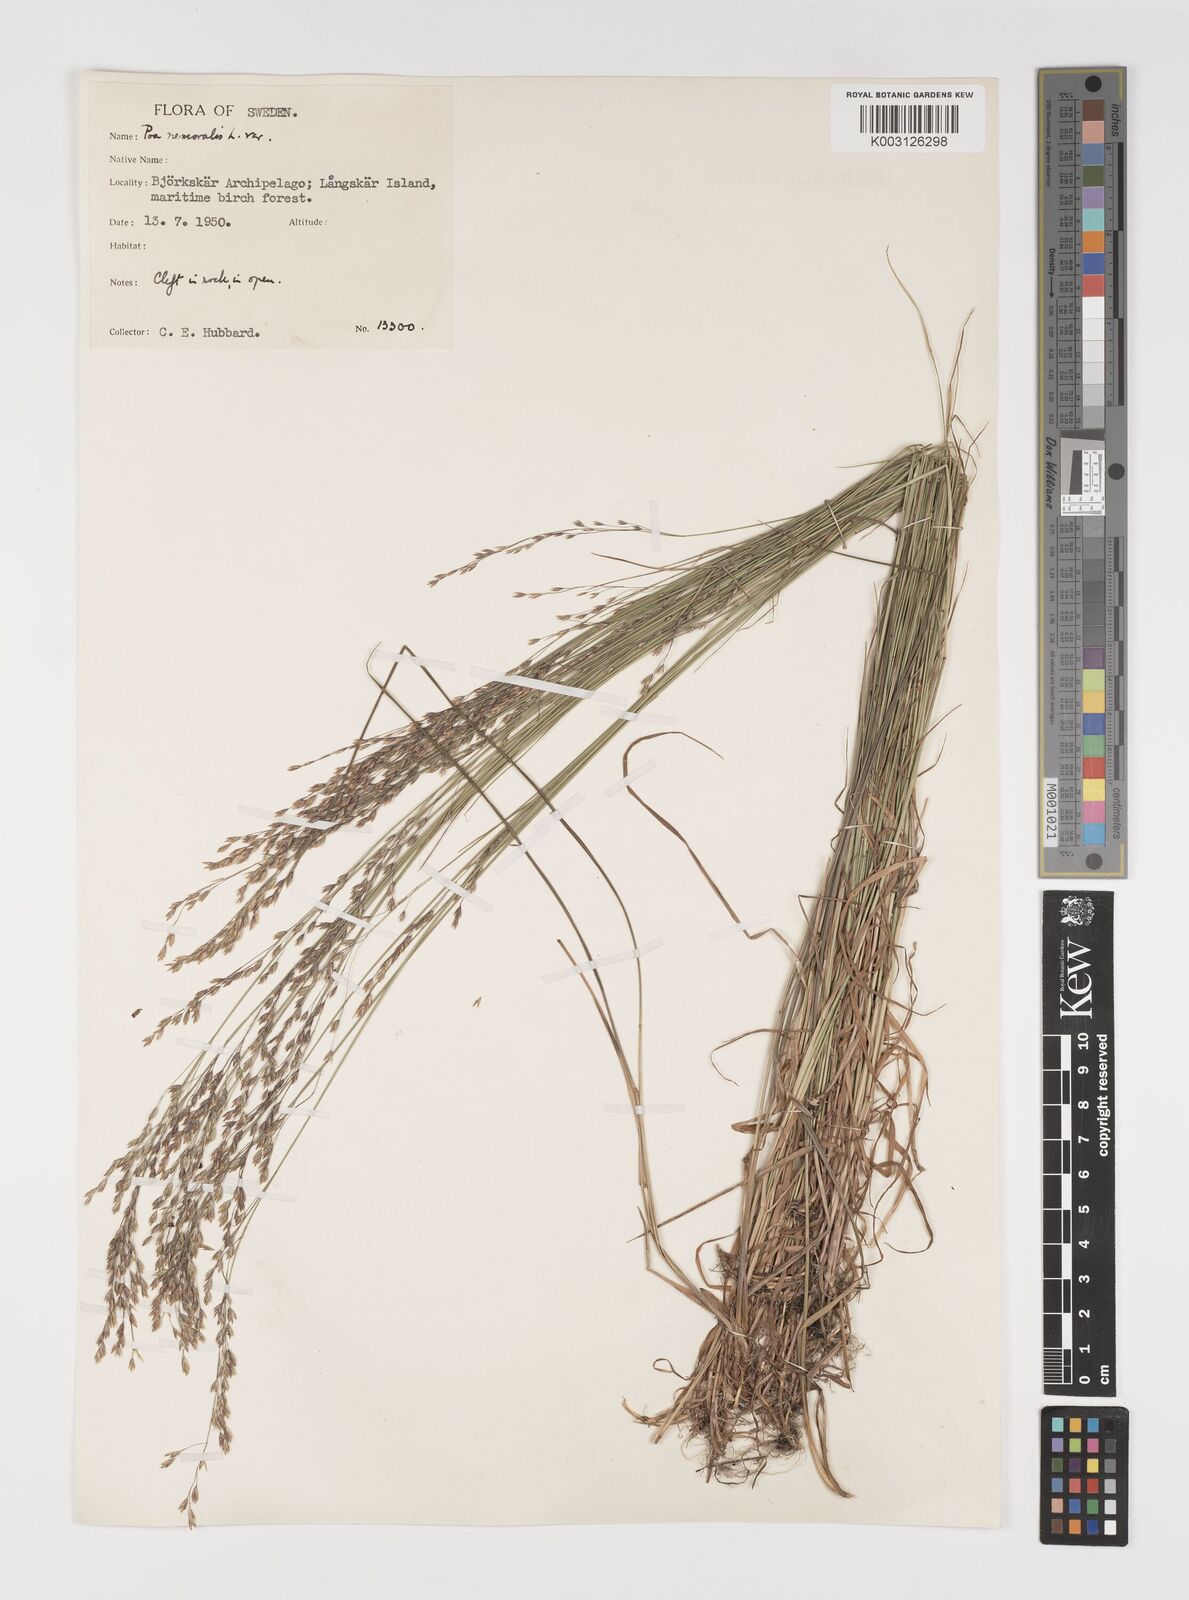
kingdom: Plantae
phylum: Tracheophyta
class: Liliopsida
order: Poales
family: Poaceae
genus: Poa
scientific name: Poa glauca
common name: Glaucous bluegrass
